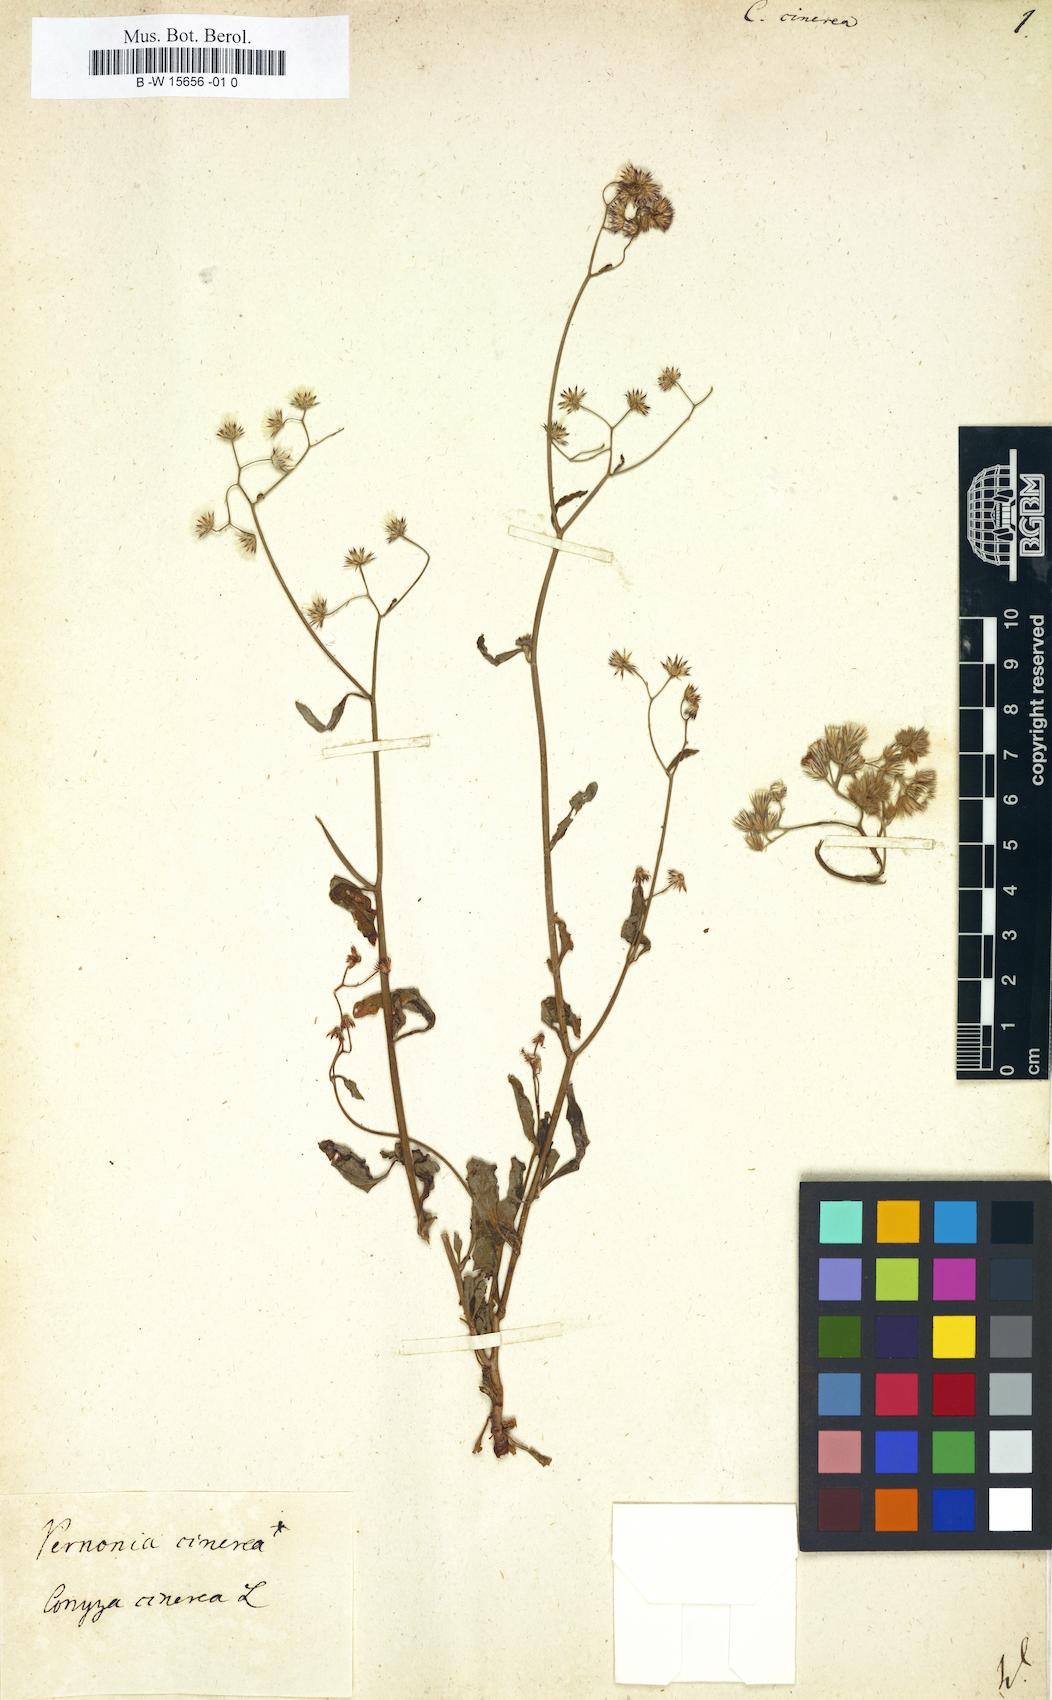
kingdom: Plantae
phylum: Tracheophyta
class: Magnoliopsida
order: Asterales
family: Asteraceae
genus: Cyanthillium
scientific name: Cyanthillium cinereum
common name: Little ironweed
